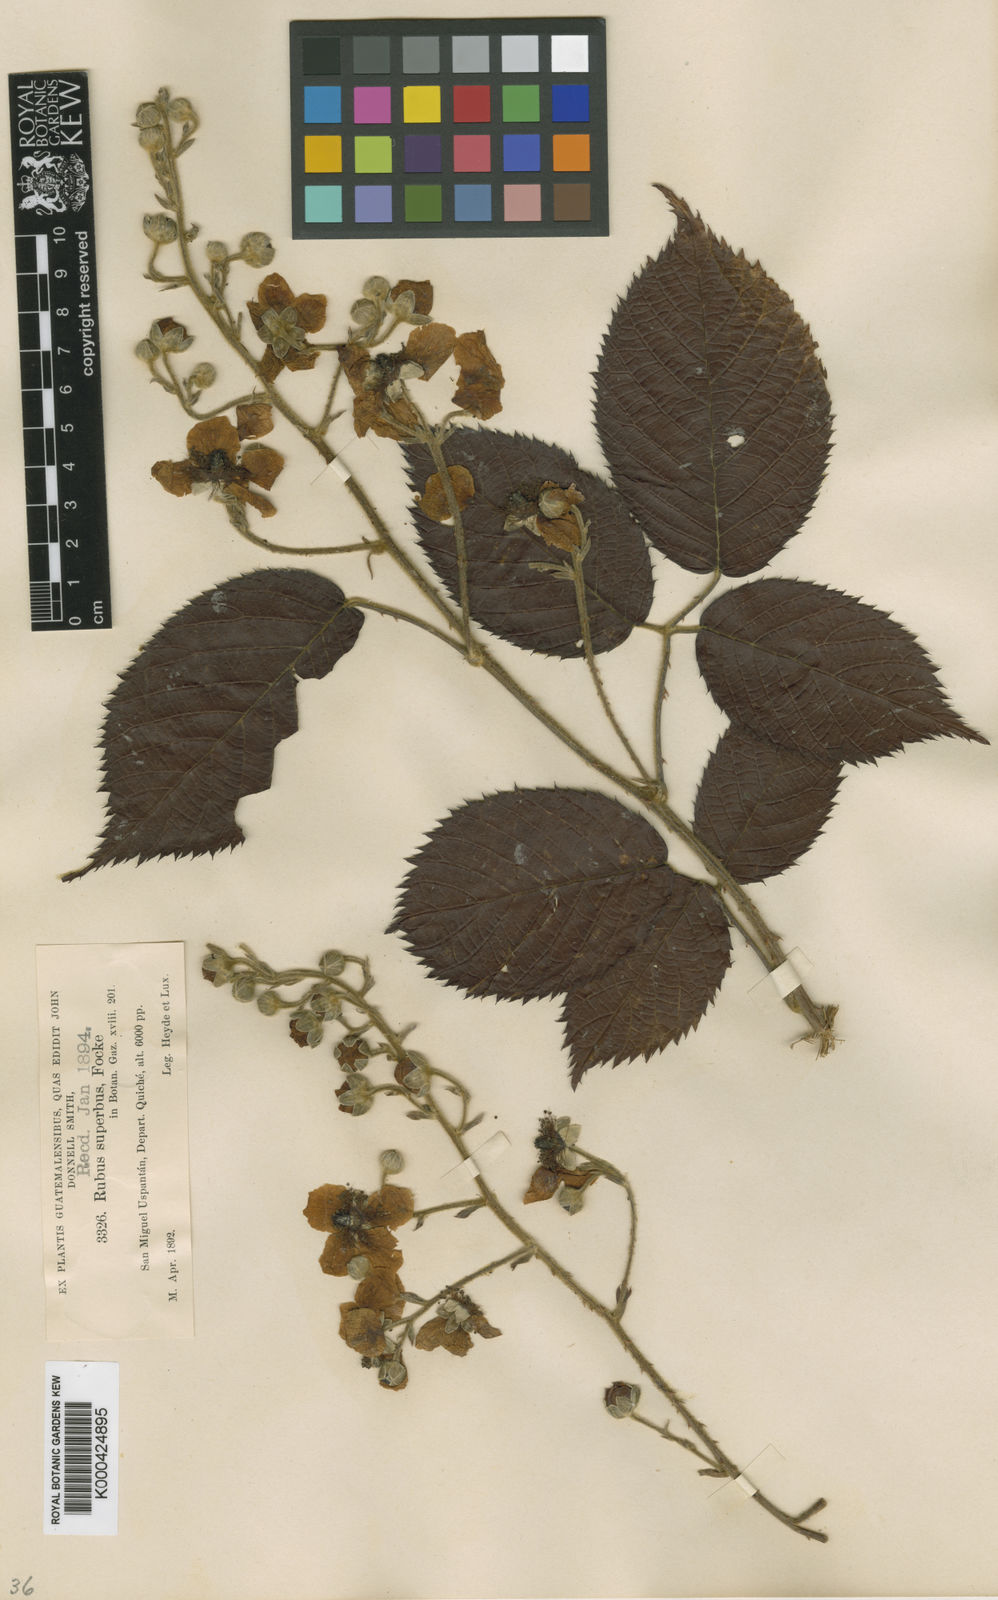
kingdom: Plantae
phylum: Tracheophyta
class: Magnoliopsida
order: Rosales
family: Rosaceae
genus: Rubus
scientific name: Rubus superbus
